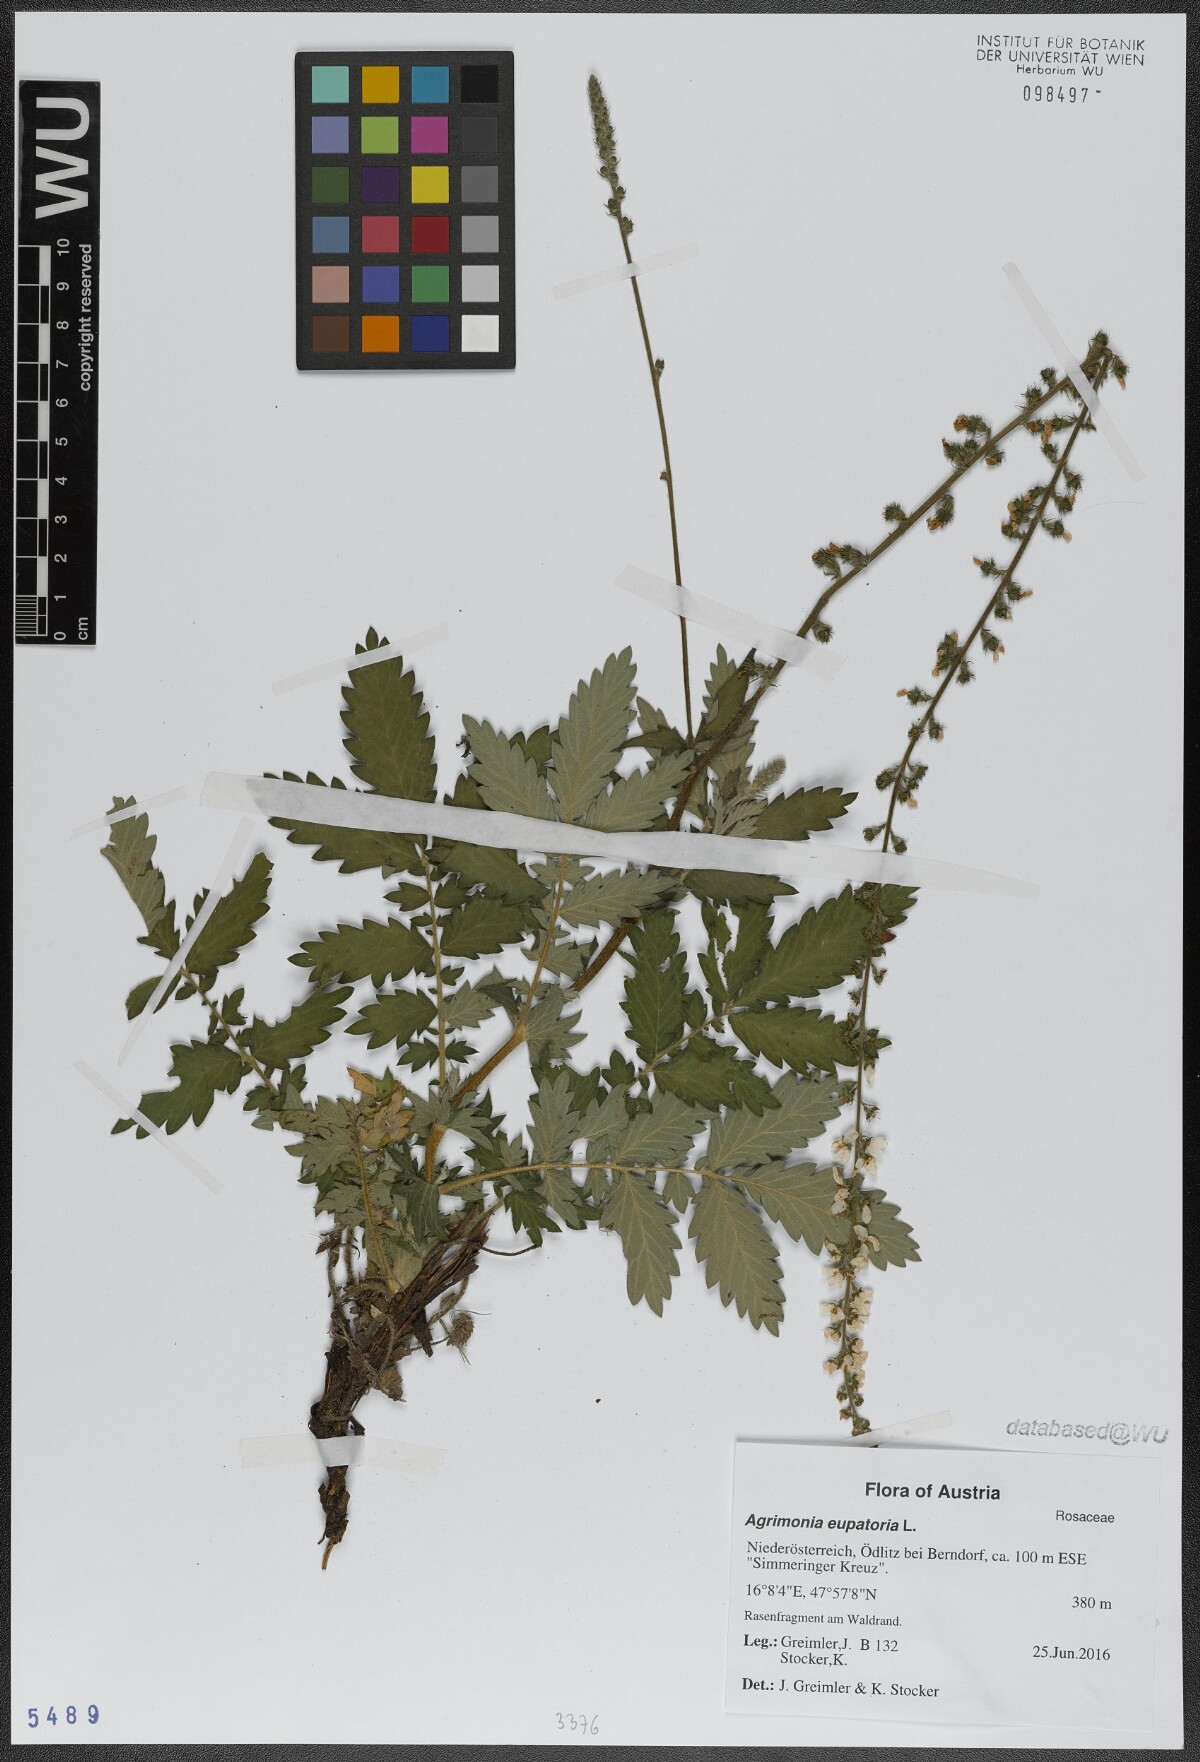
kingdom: Plantae
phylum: Tracheophyta
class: Magnoliopsida
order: Rosales
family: Rosaceae
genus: Agrimonia
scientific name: Agrimonia eupatoria
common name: Agrimony
